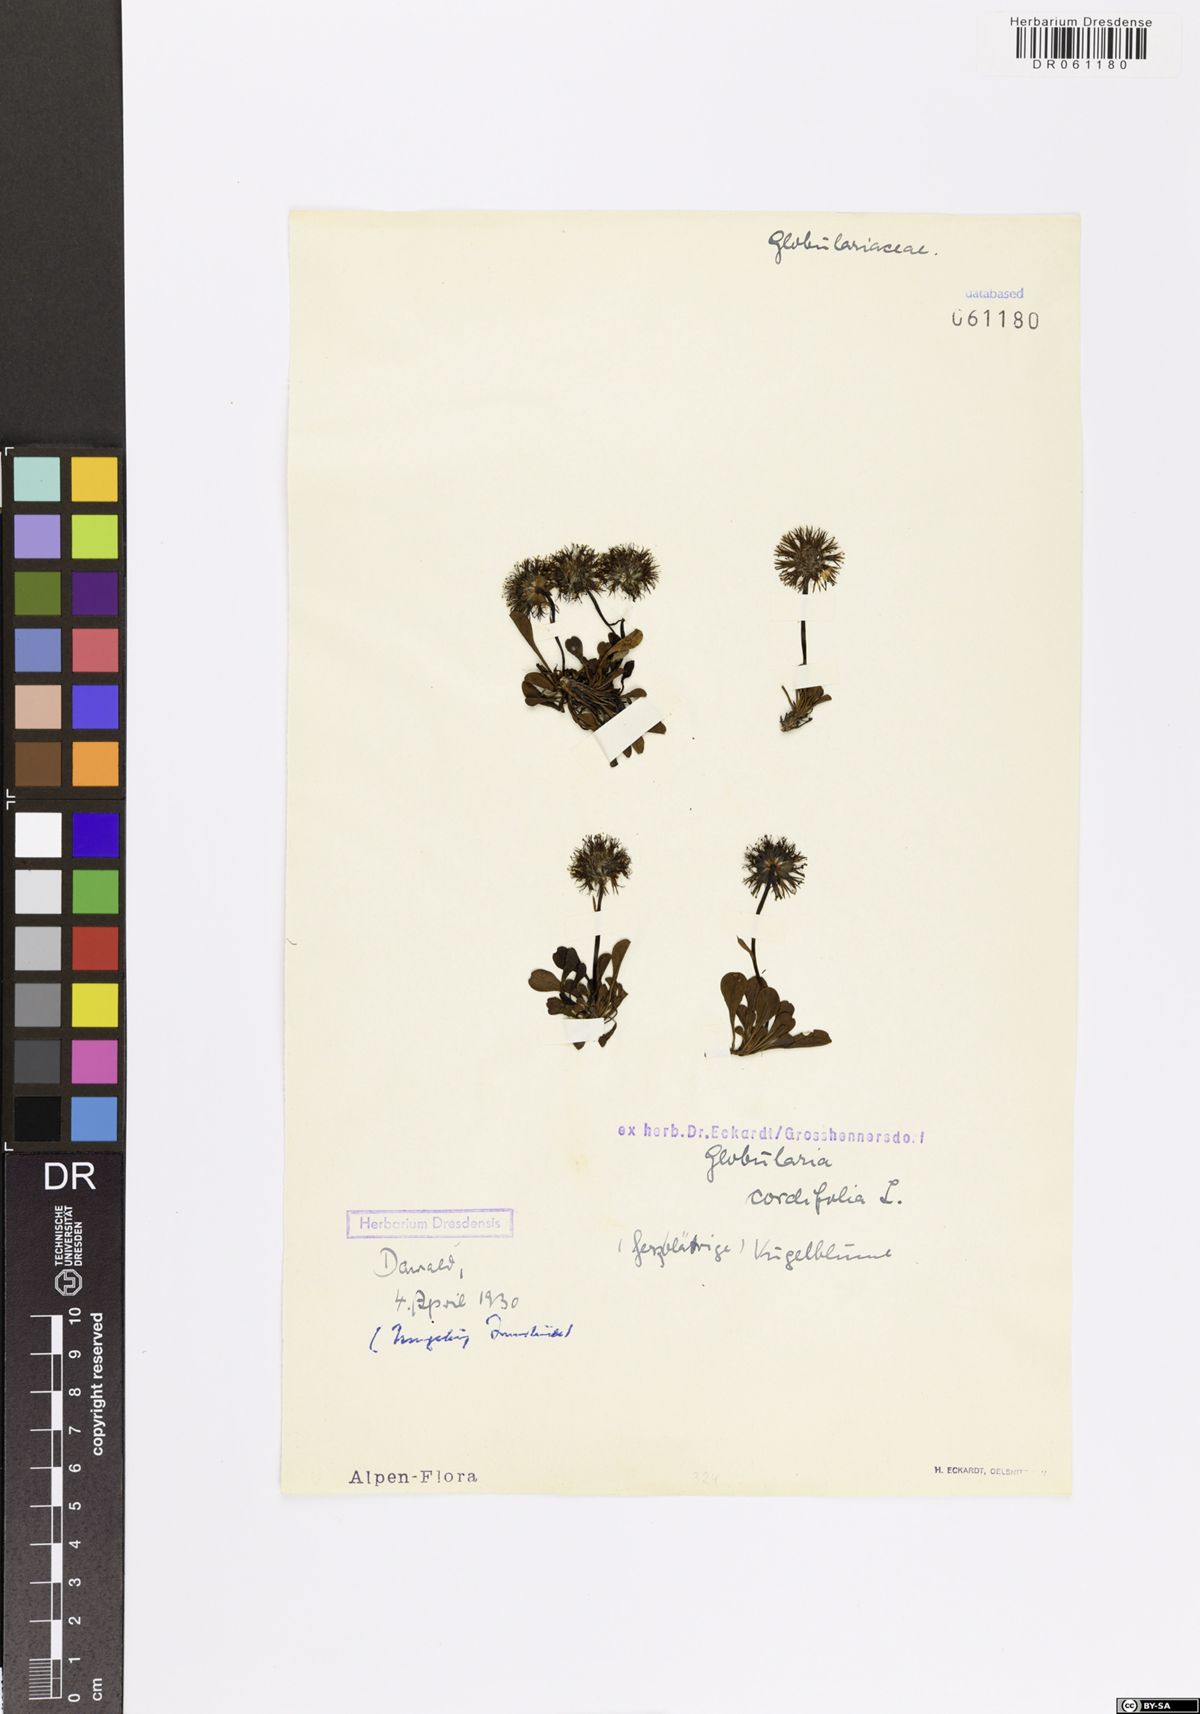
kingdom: Plantae
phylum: Tracheophyta
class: Magnoliopsida
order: Lamiales
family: Plantaginaceae
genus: Globularia
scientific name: Globularia cordifolia
